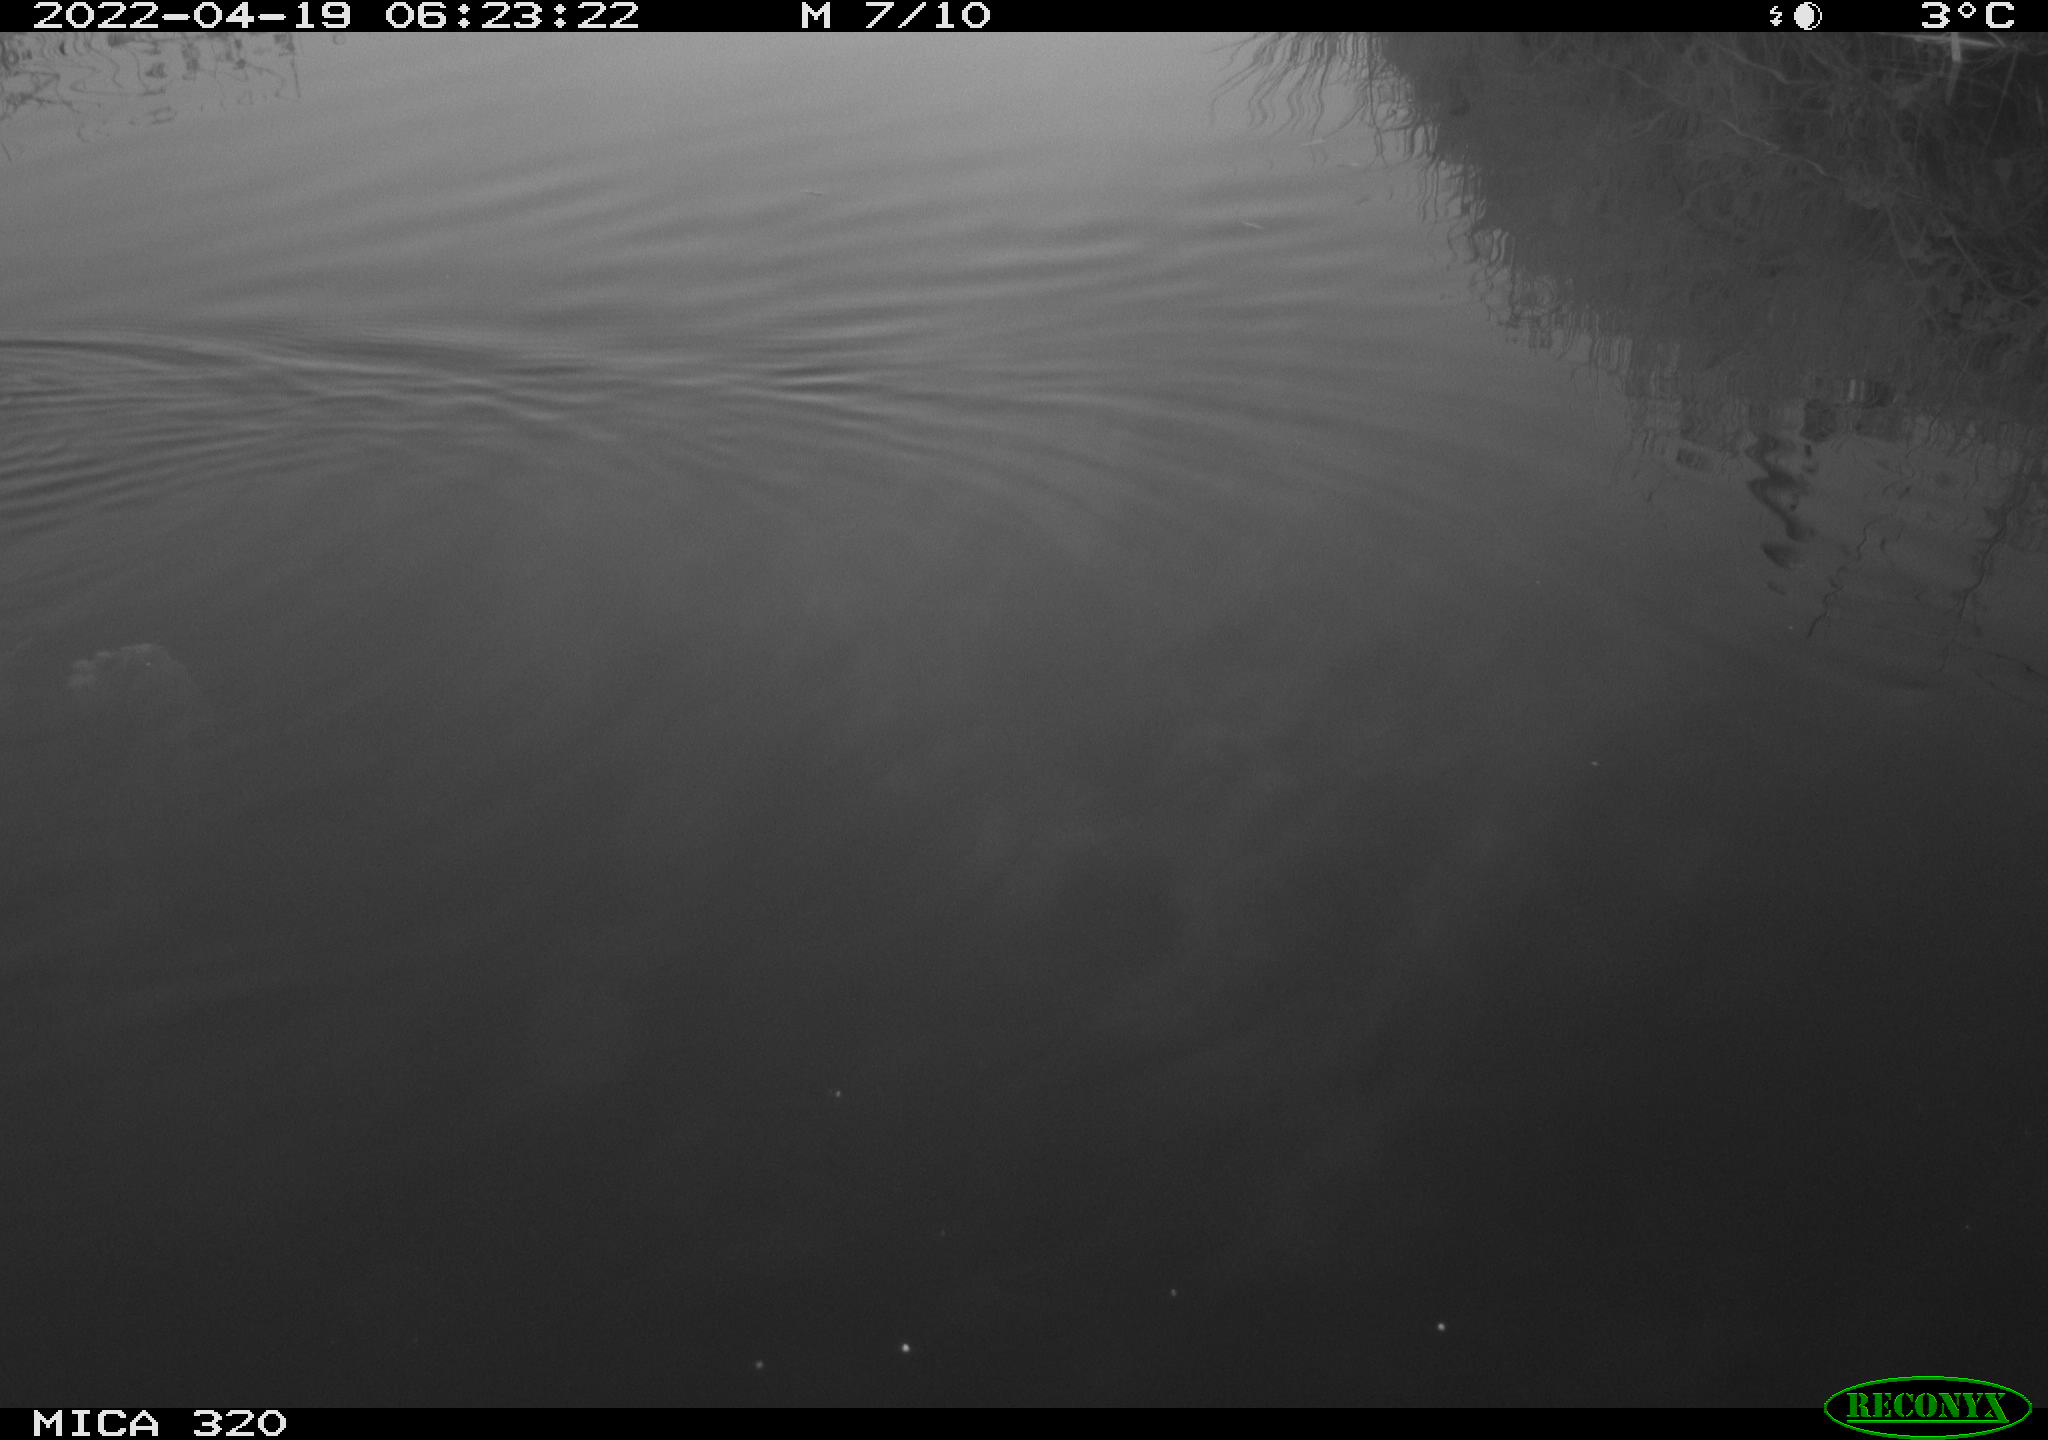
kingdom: Animalia
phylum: Chordata
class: Aves
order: Anseriformes
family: Anatidae
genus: Anas
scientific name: Anas platyrhynchos
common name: Mallard
